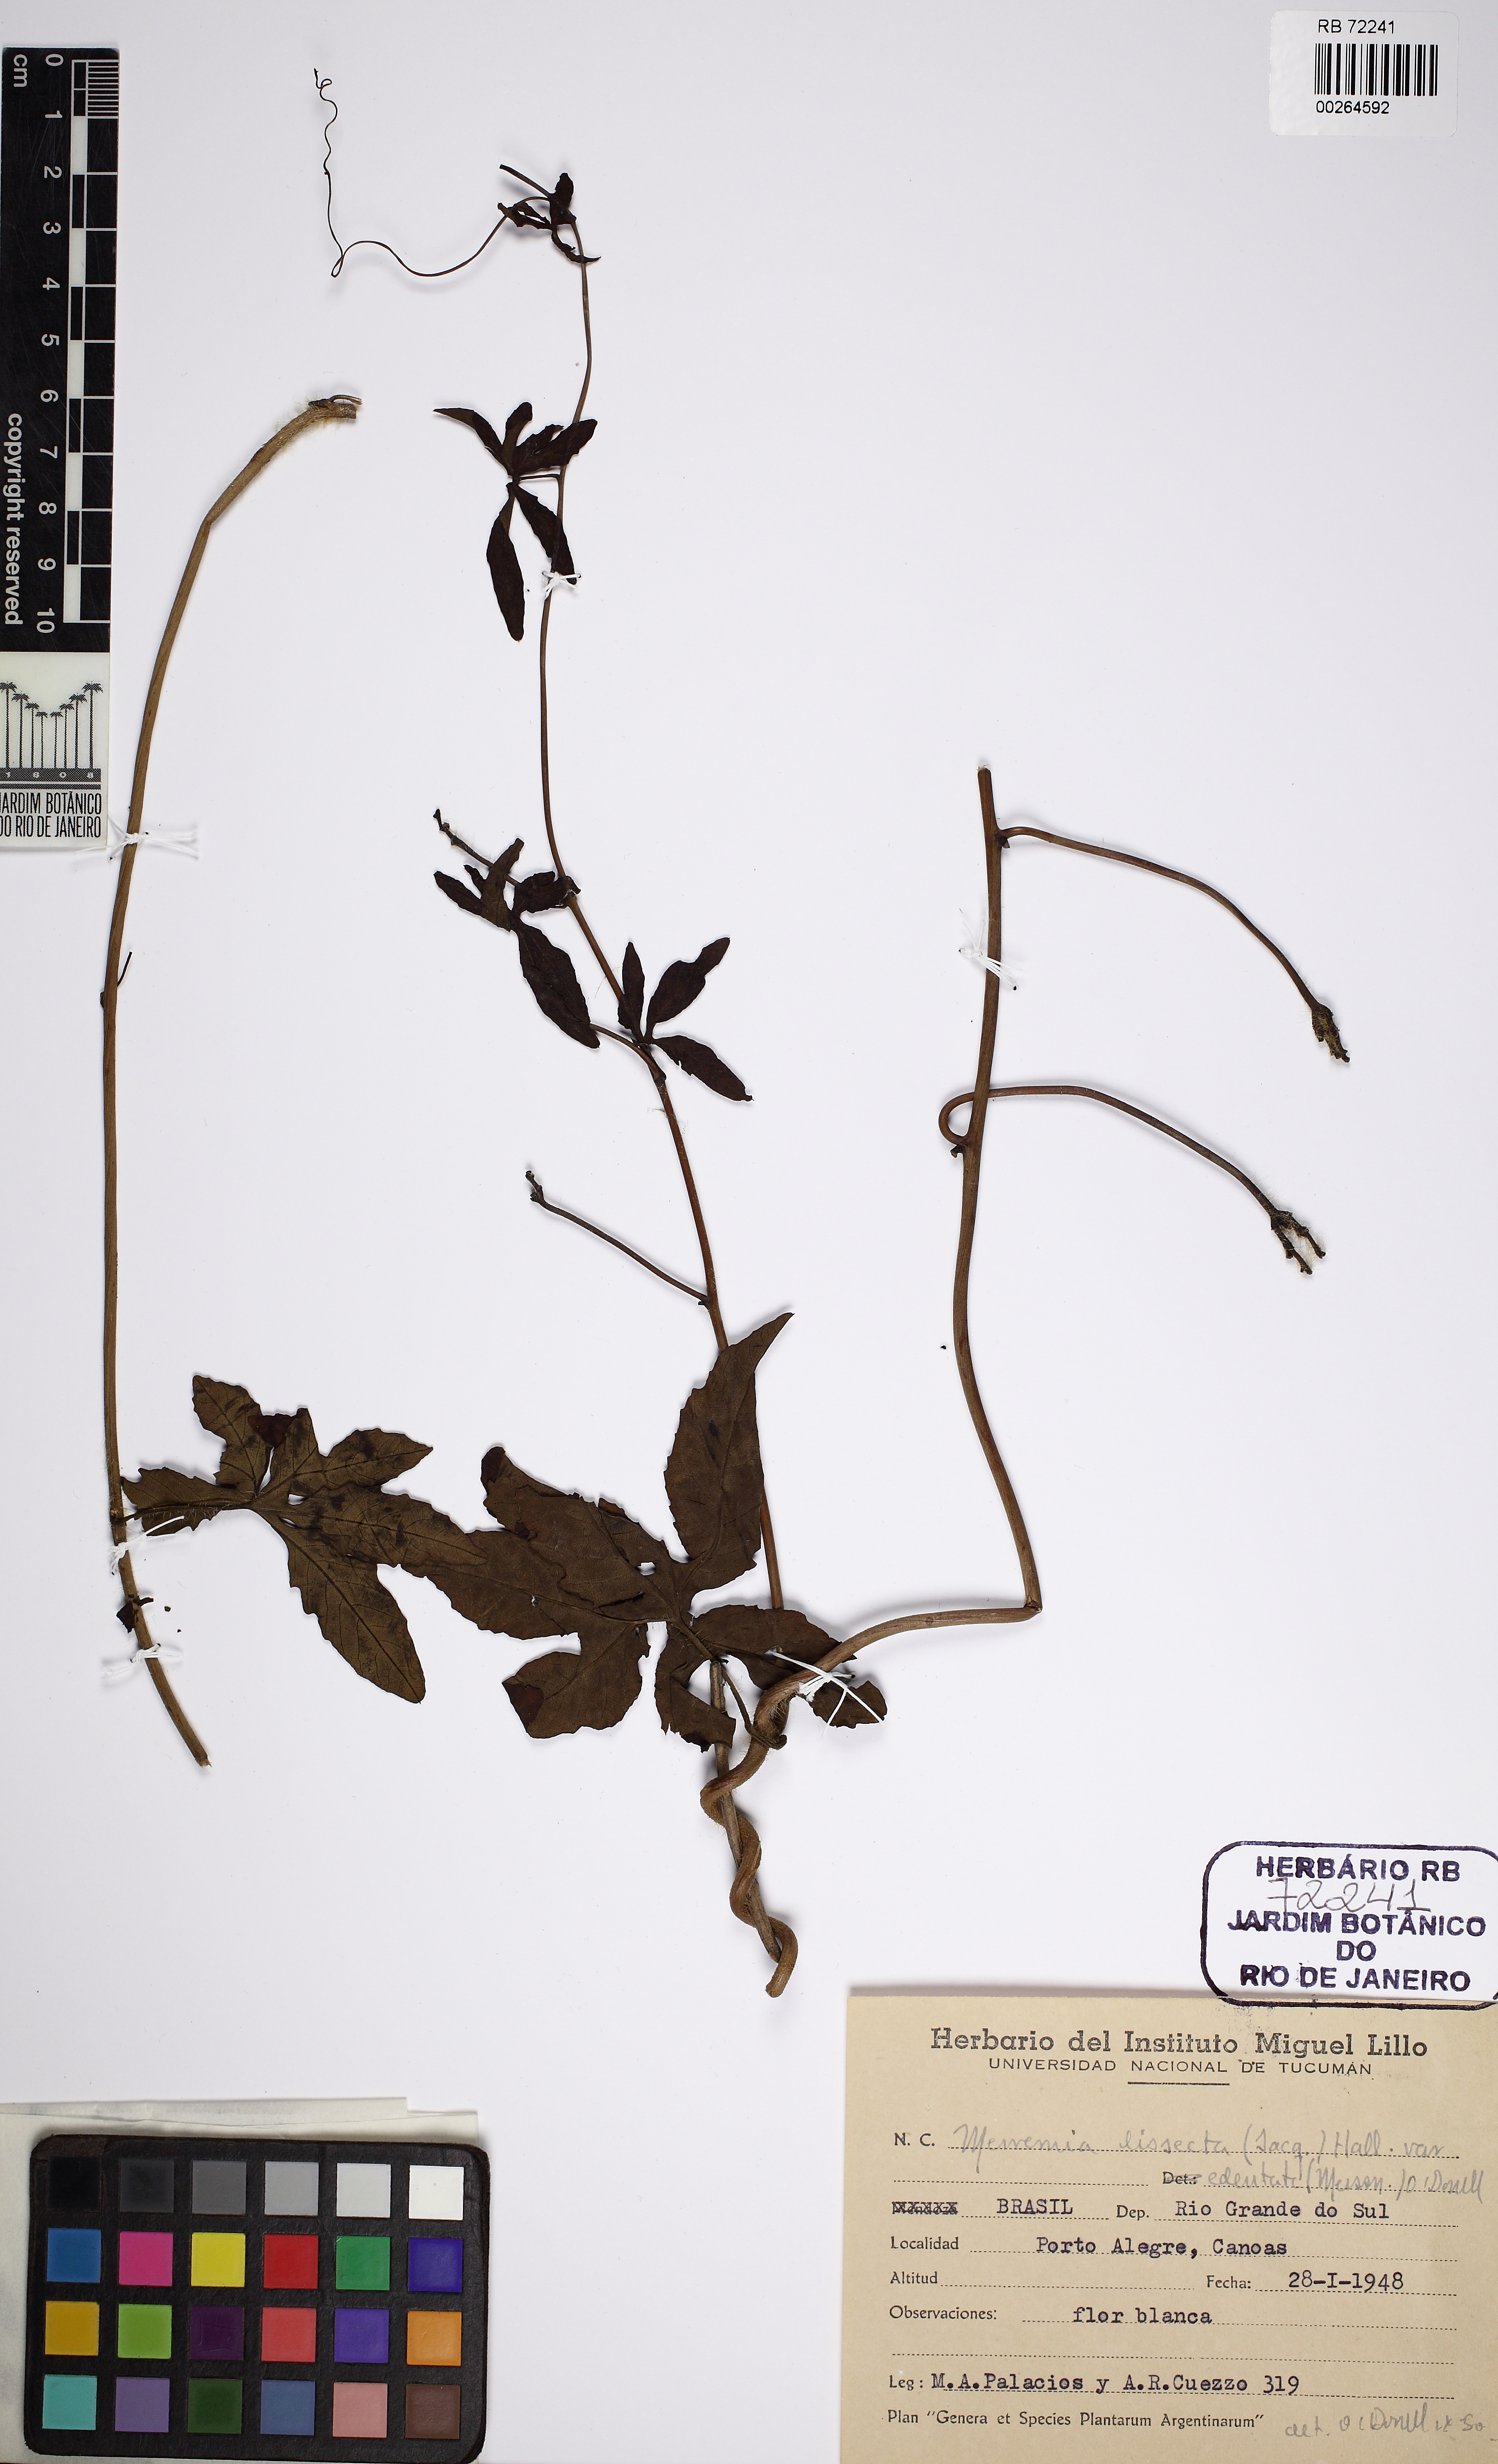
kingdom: Plantae
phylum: Tracheophyta
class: Magnoliopsida
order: Solanales
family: Convolvulaceae
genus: Distimake
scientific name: Distimake dissectus
